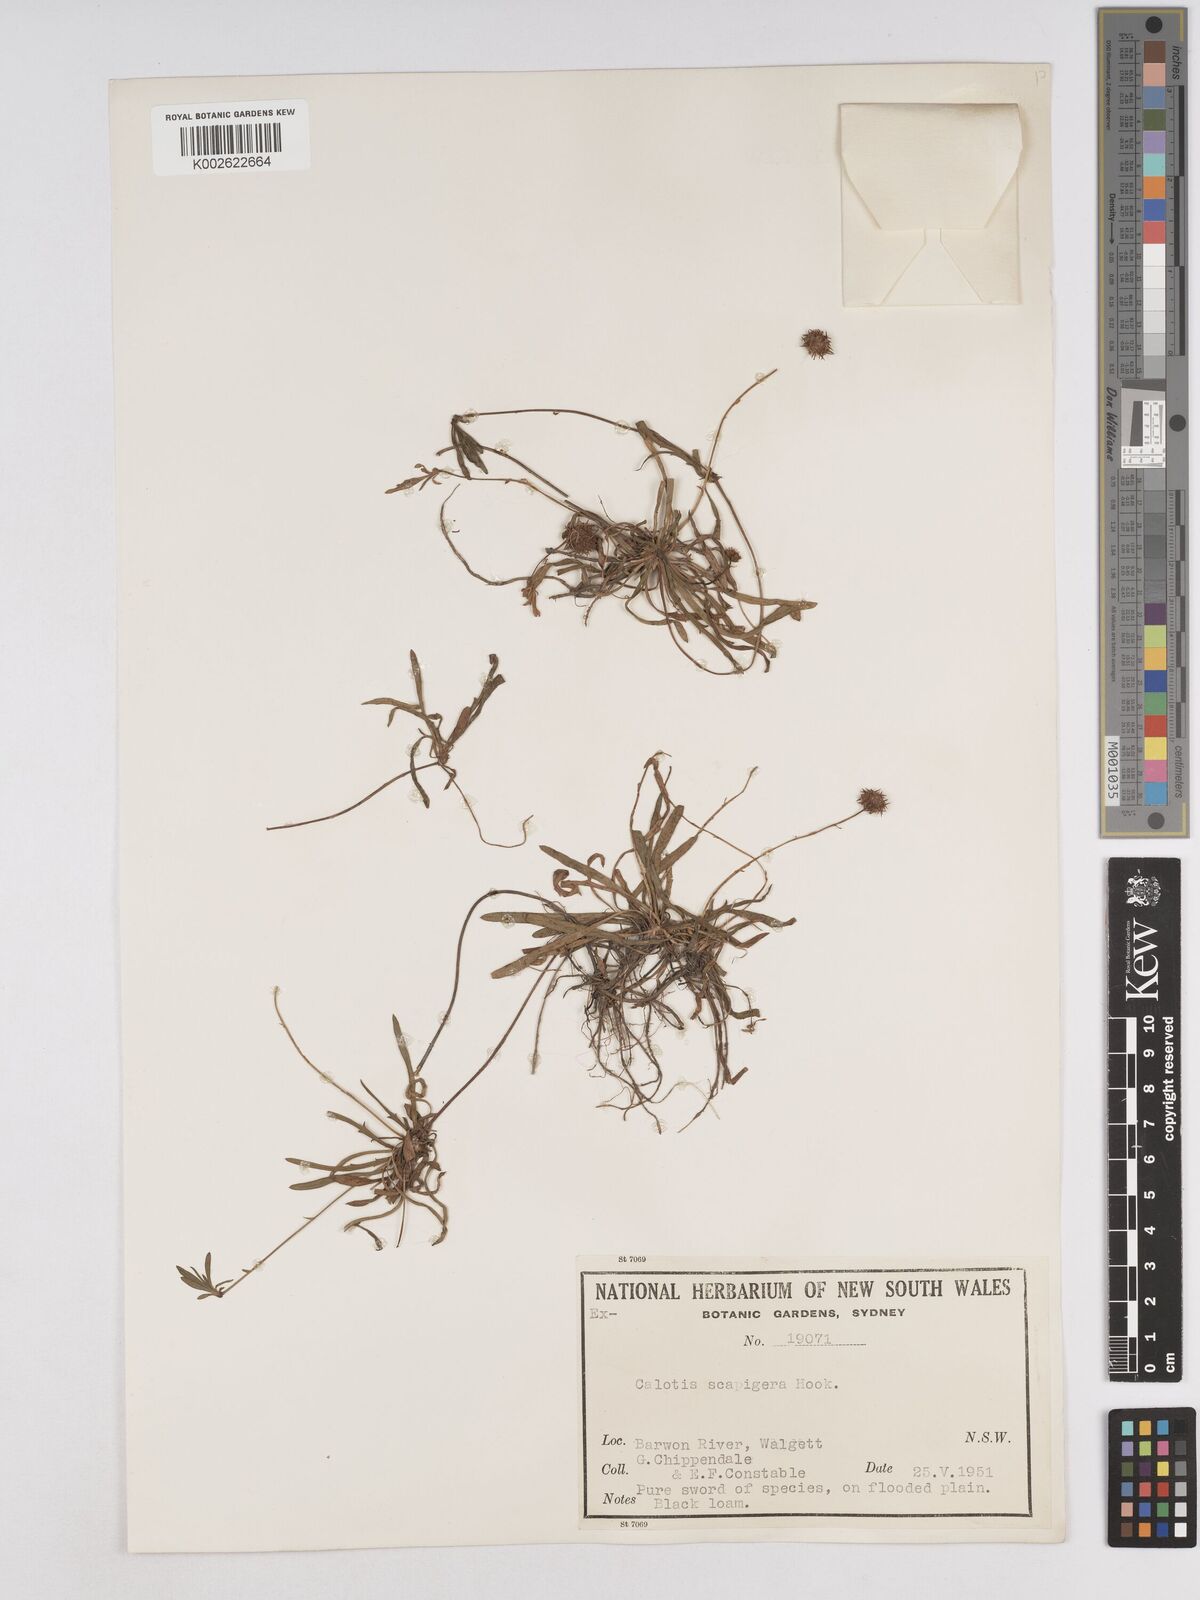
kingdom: Plantae
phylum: Tracheophyta
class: Magnoliopsida
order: Asterales
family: Asteraceae
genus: Calotis
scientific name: Calotis scapigera
